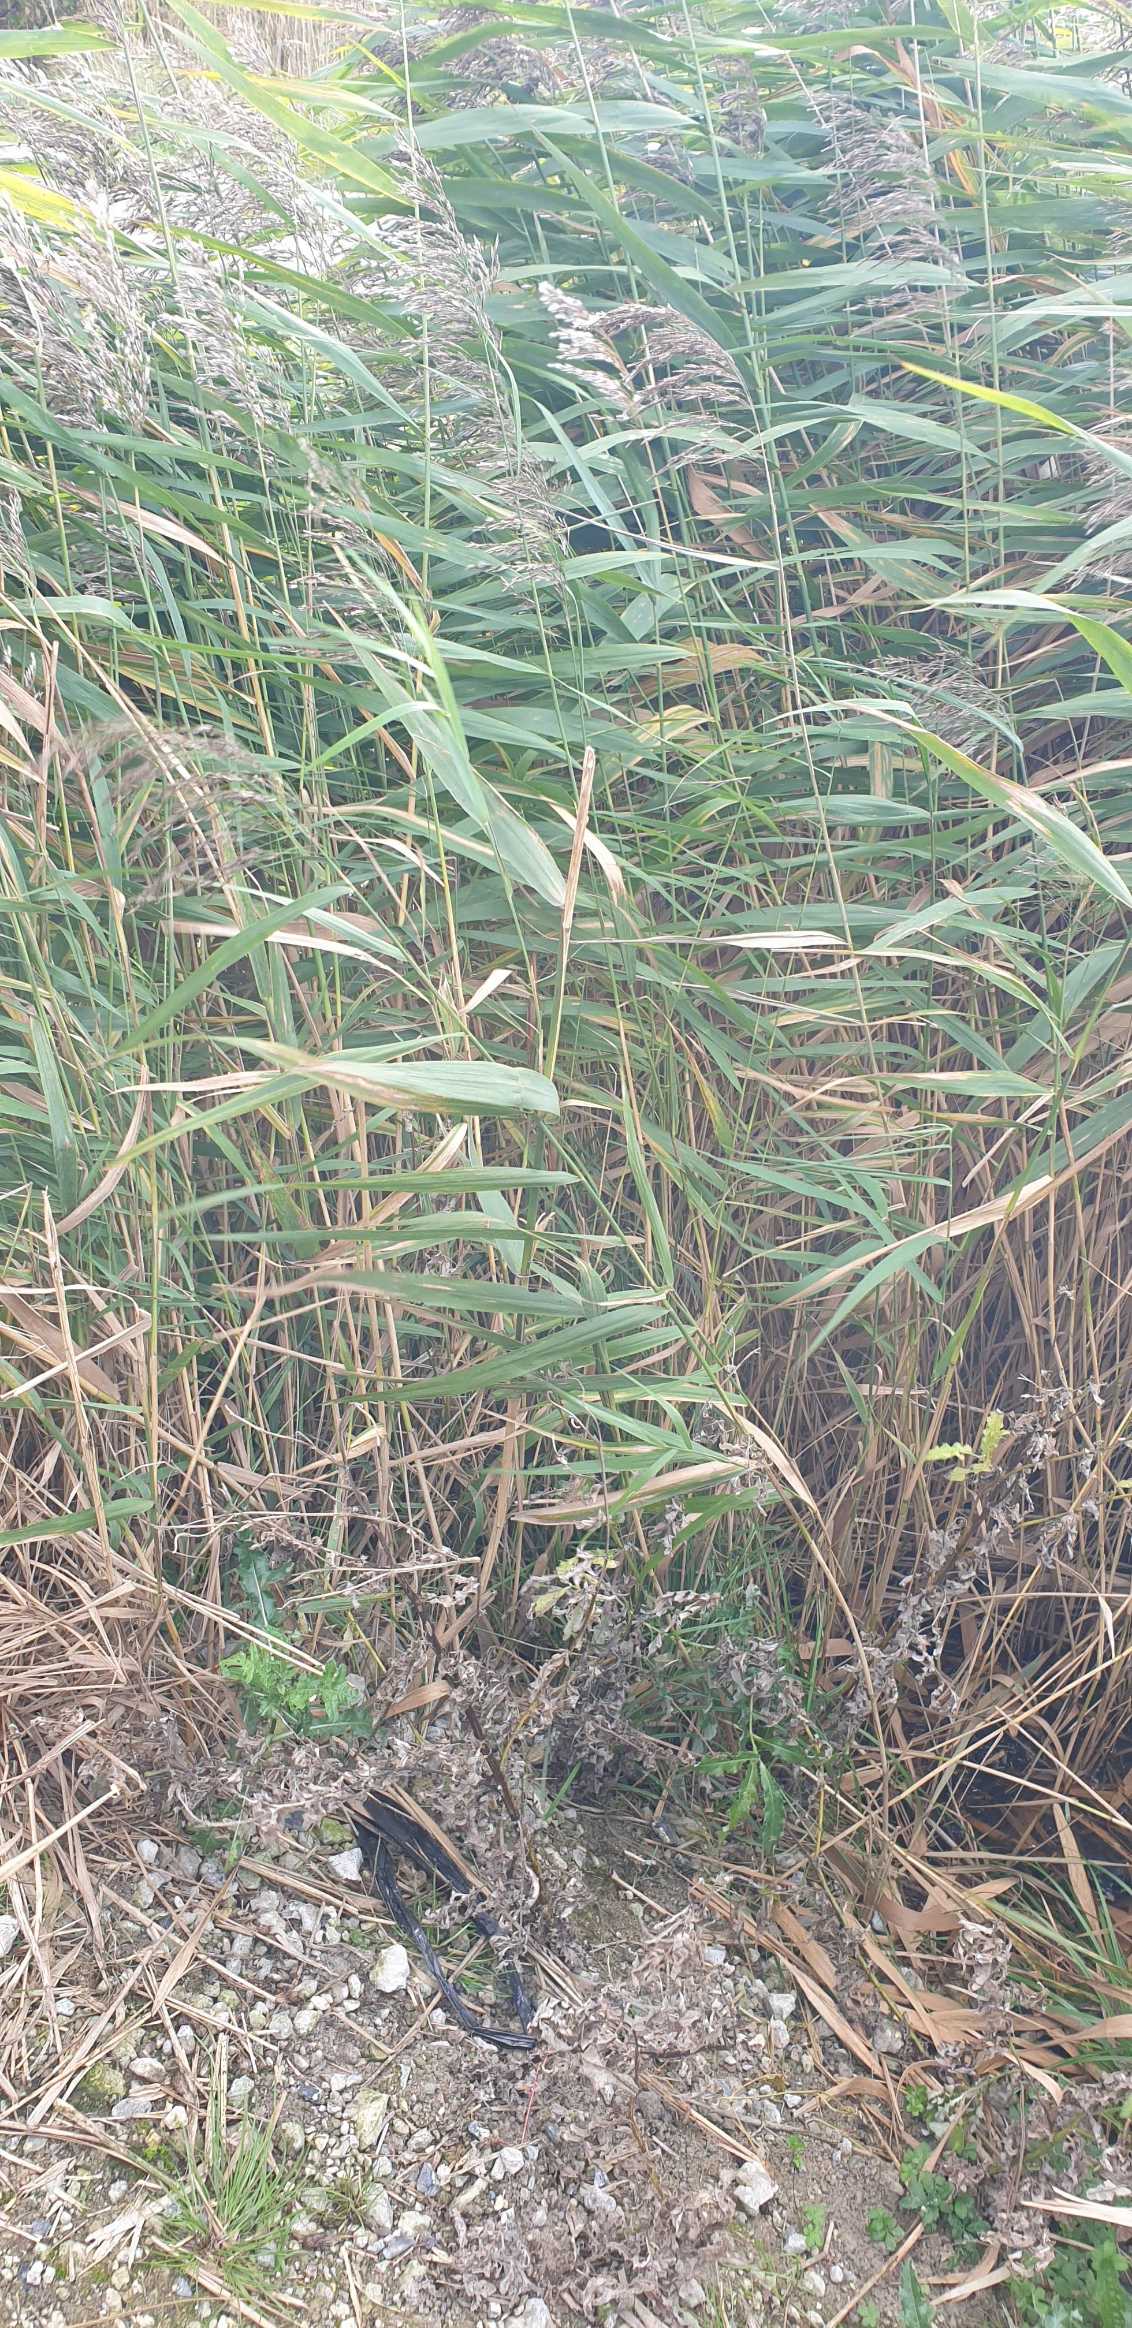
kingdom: Plantae
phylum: Tracheophyta
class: Liliopsida
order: Poales
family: Poaceae
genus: Phragmites
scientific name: Phragmites australis
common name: Tagrør
